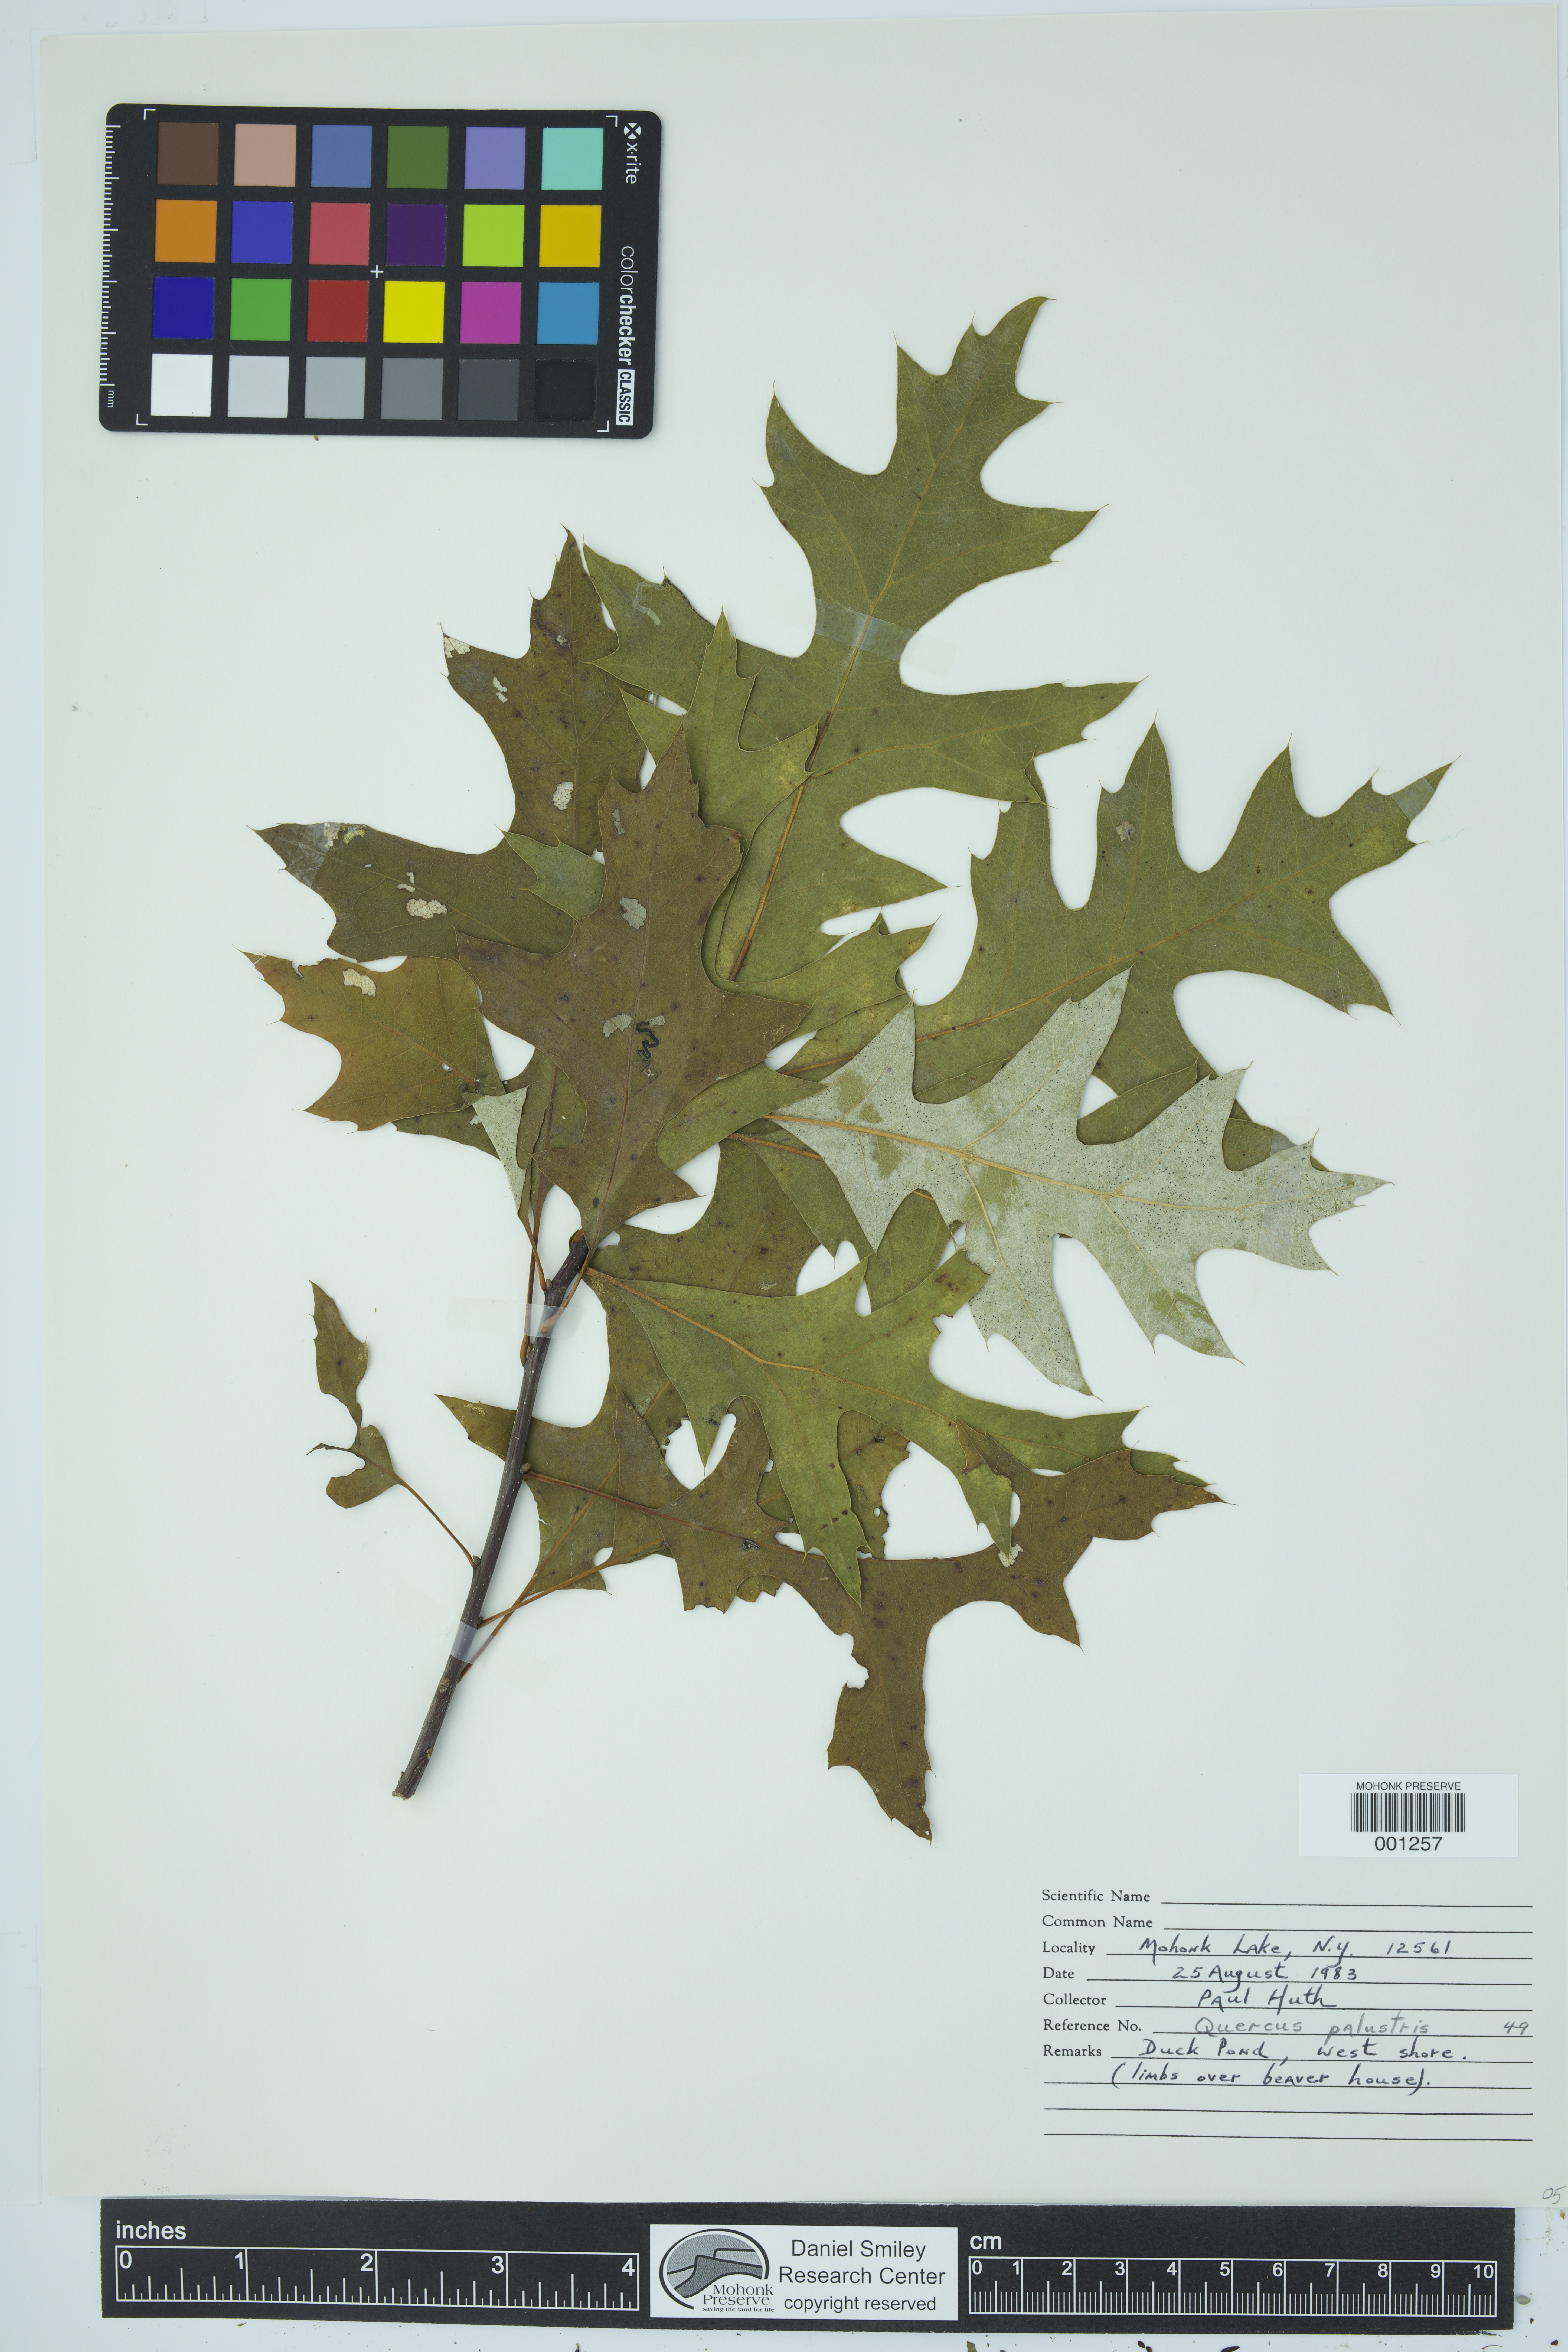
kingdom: Plantae
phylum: Tracheophyta
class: Magnoliopsida
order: Fagales
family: Fagaceae
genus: Quercus
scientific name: Quercus palustris
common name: Pin oak
